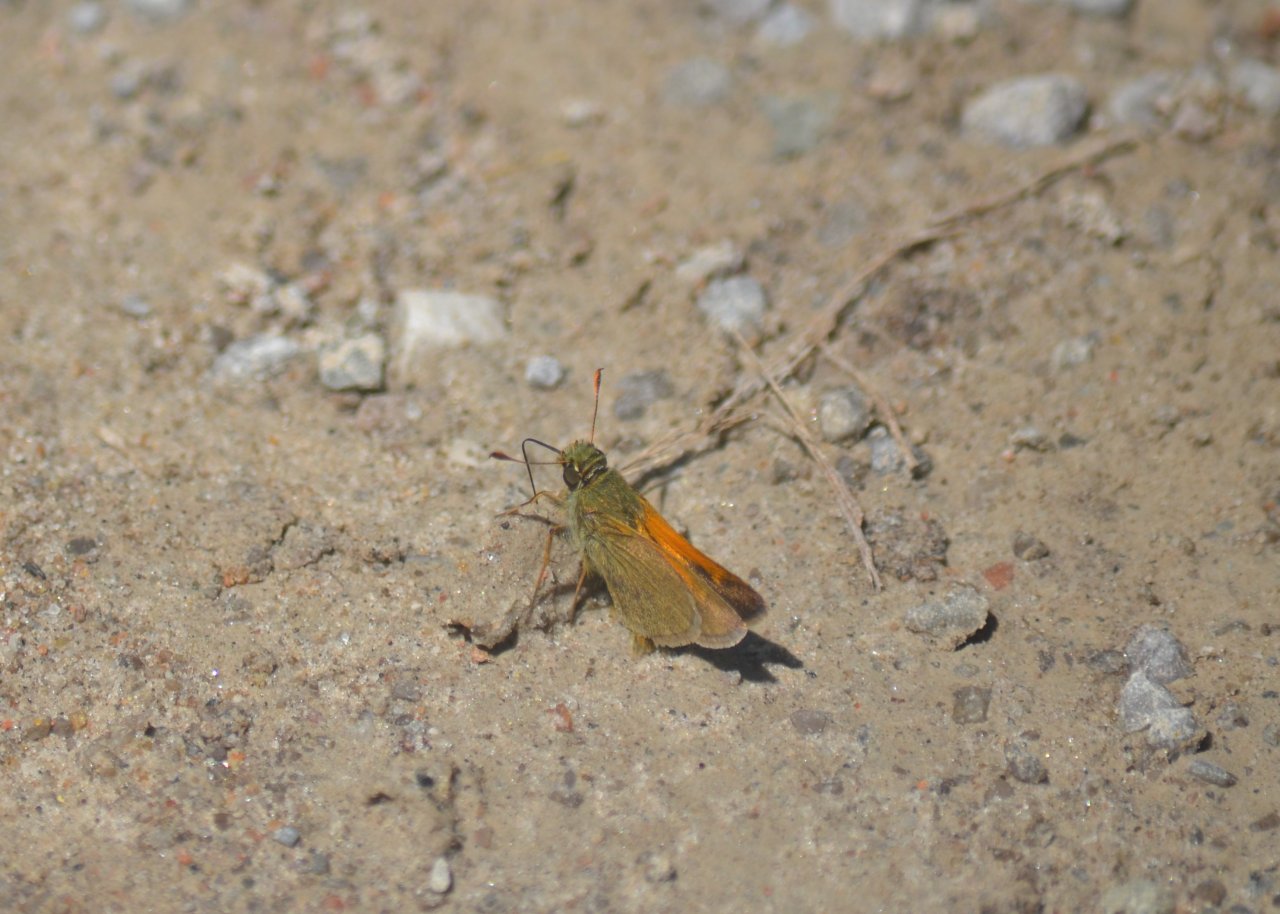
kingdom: Animalia
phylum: Arthropoda
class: Insecta
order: Lepidoptera
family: Hesperiidae
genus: Polites
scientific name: Polites themistocles
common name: Tawny-edged Skipper
